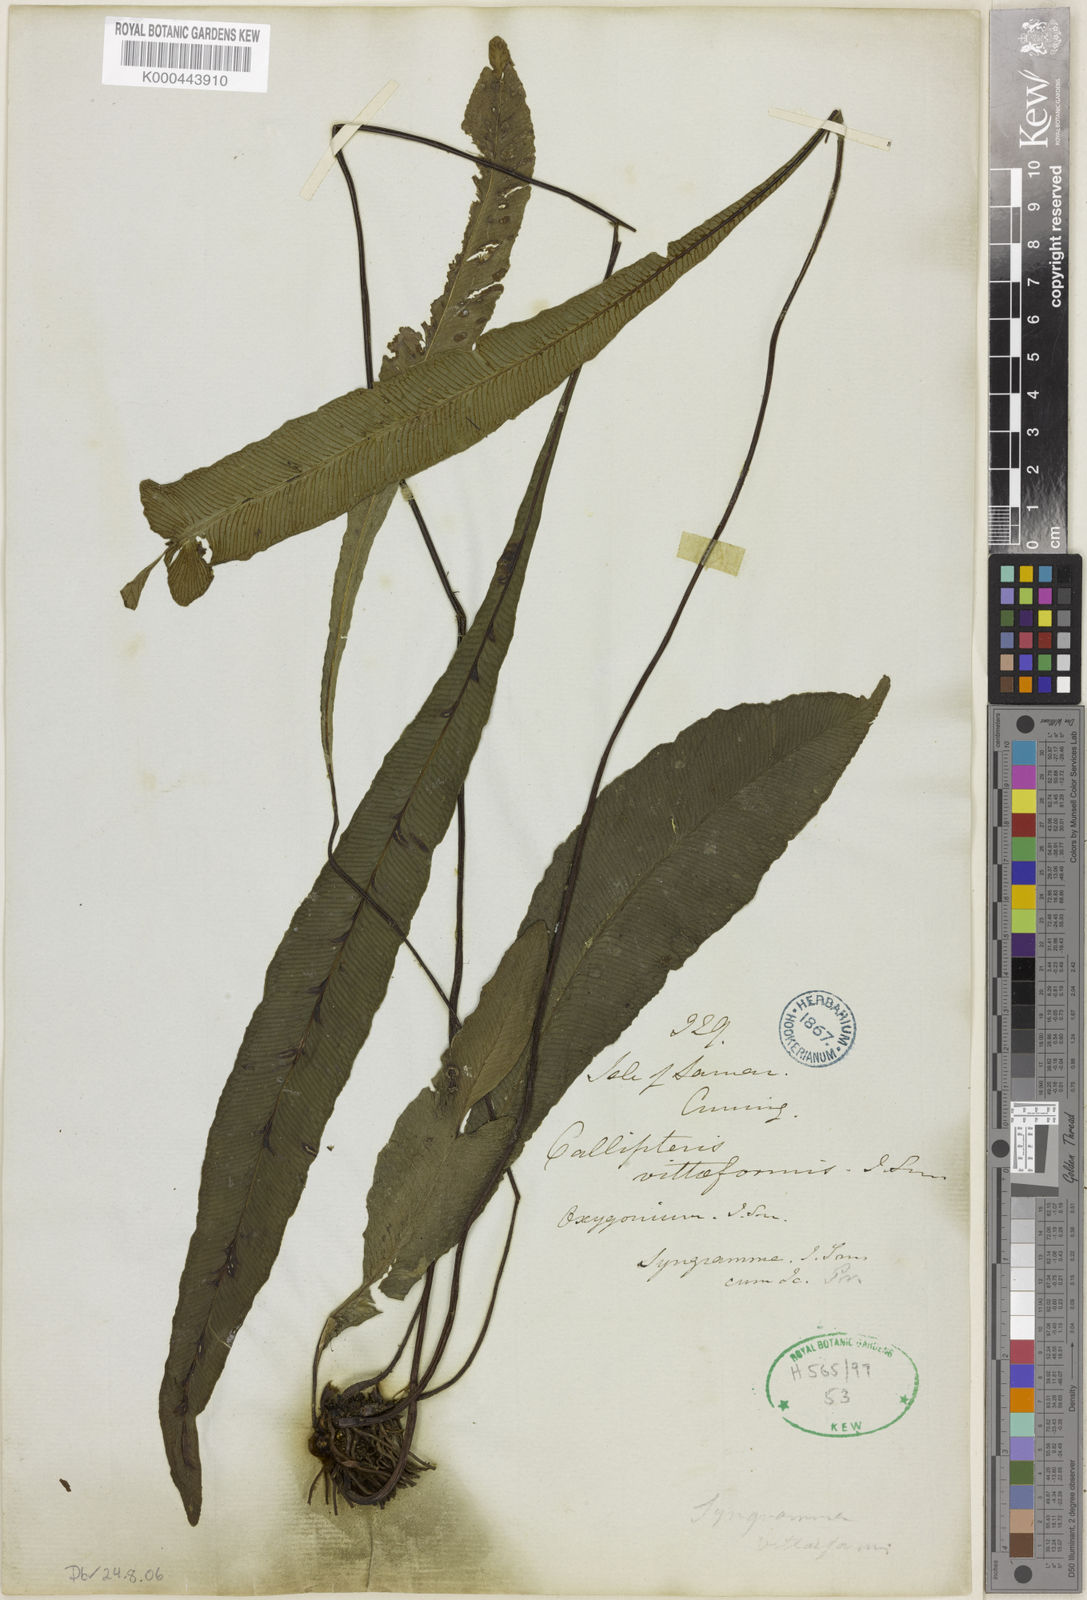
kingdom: Plantae
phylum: Tracheophyta
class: Polypodiopsida
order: Polypodiales
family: Pteridaceae
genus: Syngramma
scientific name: Syngramma vittiformis
